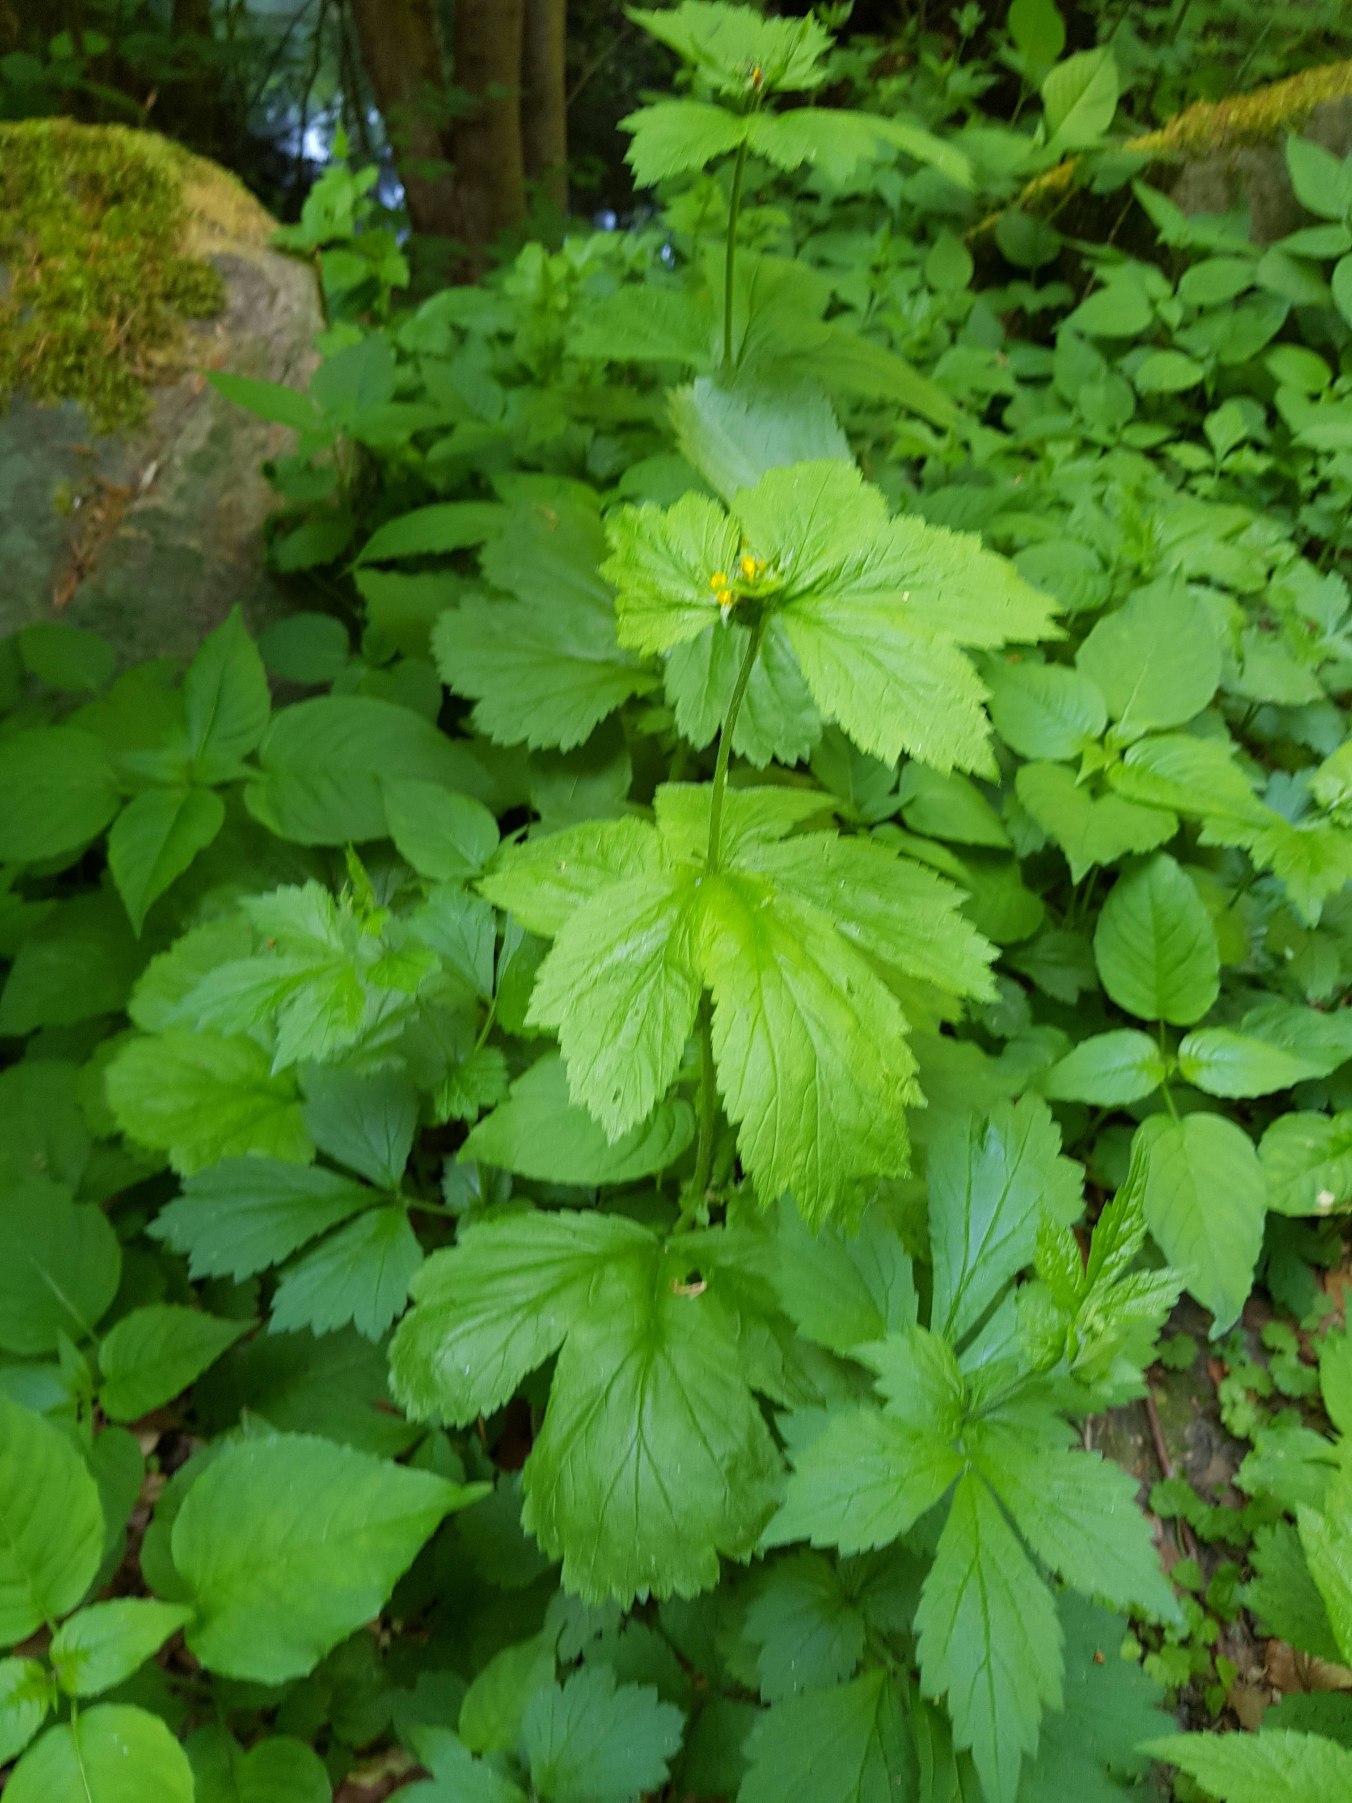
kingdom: Plantae
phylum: Tracheophyta
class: Magnoliopsida
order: Rosales
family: Rosaceae
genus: Geum
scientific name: Geum macrophyllum
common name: Amerikansk nellikerod
